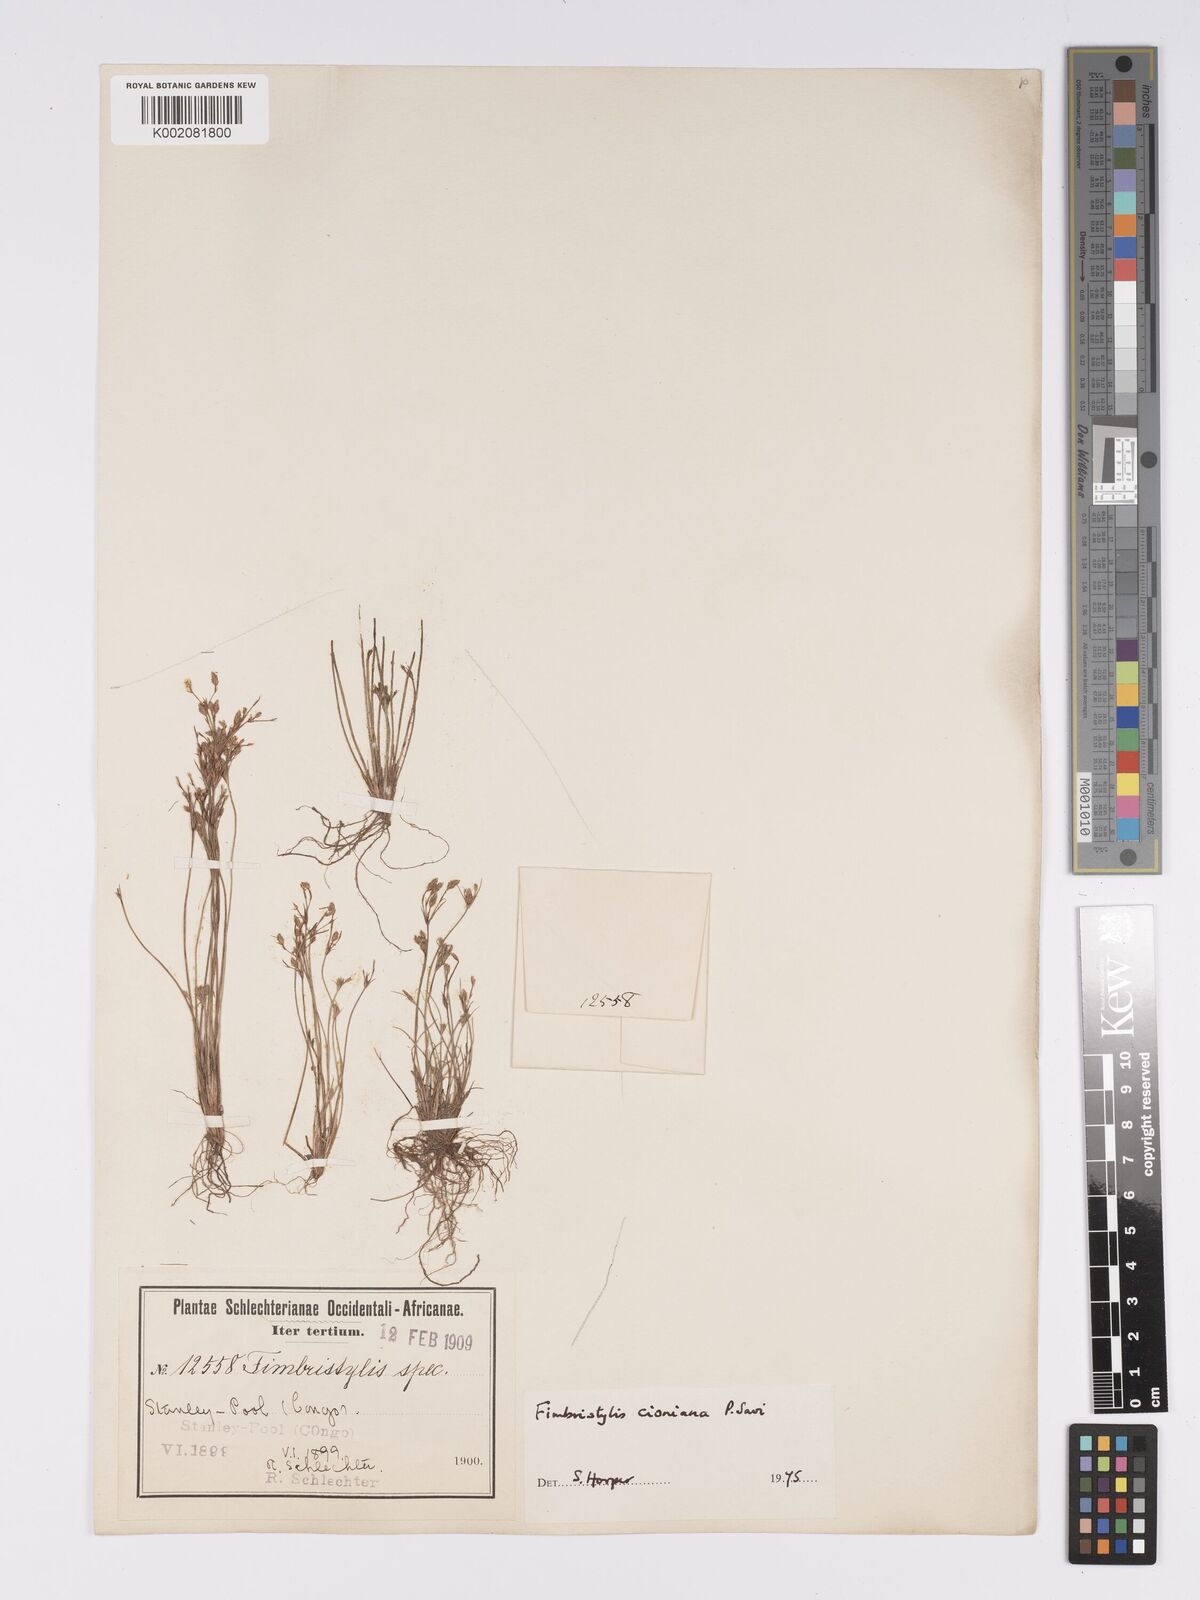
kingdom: Plantae
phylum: Tracheophyta
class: Liliopsida
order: Poales
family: Cyperaceae
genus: Bulbostylis
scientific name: Bulbostylis cioniana
